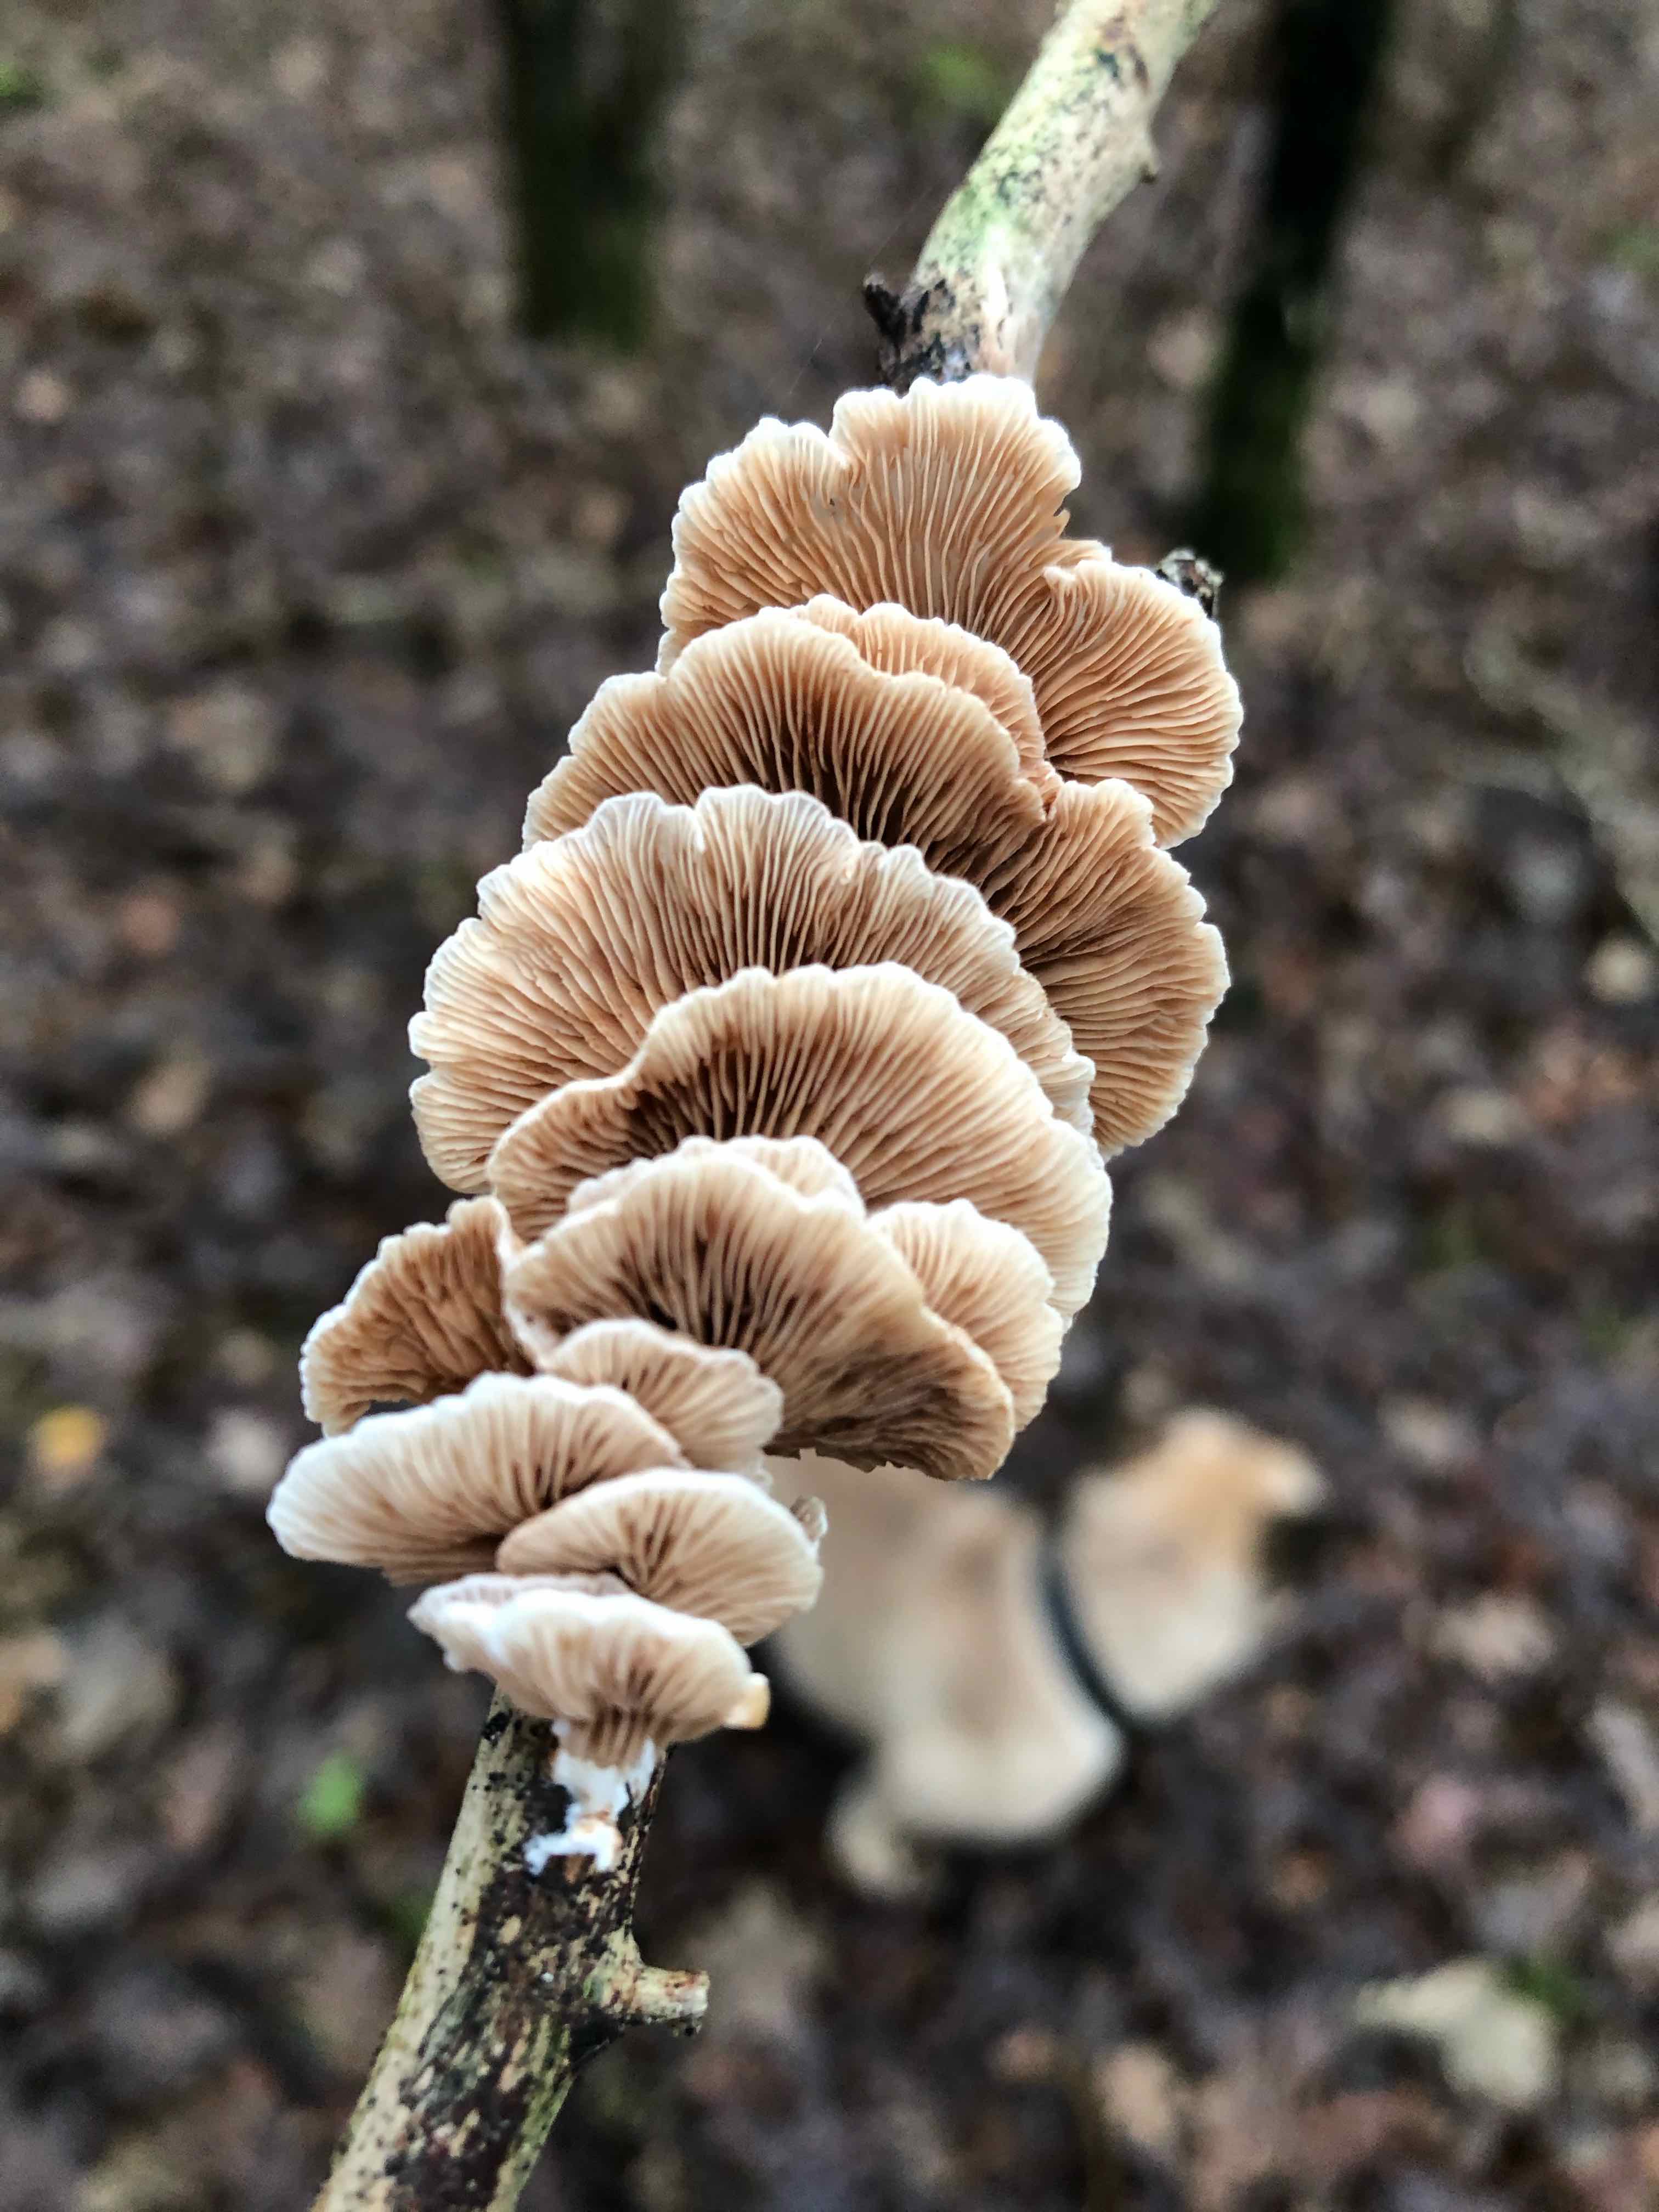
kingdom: Fungi
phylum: Basidiomycota
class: Agaricomycetes
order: Agaricales
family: Crepidotaceae
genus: Crepidotus
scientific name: Crepidotus
